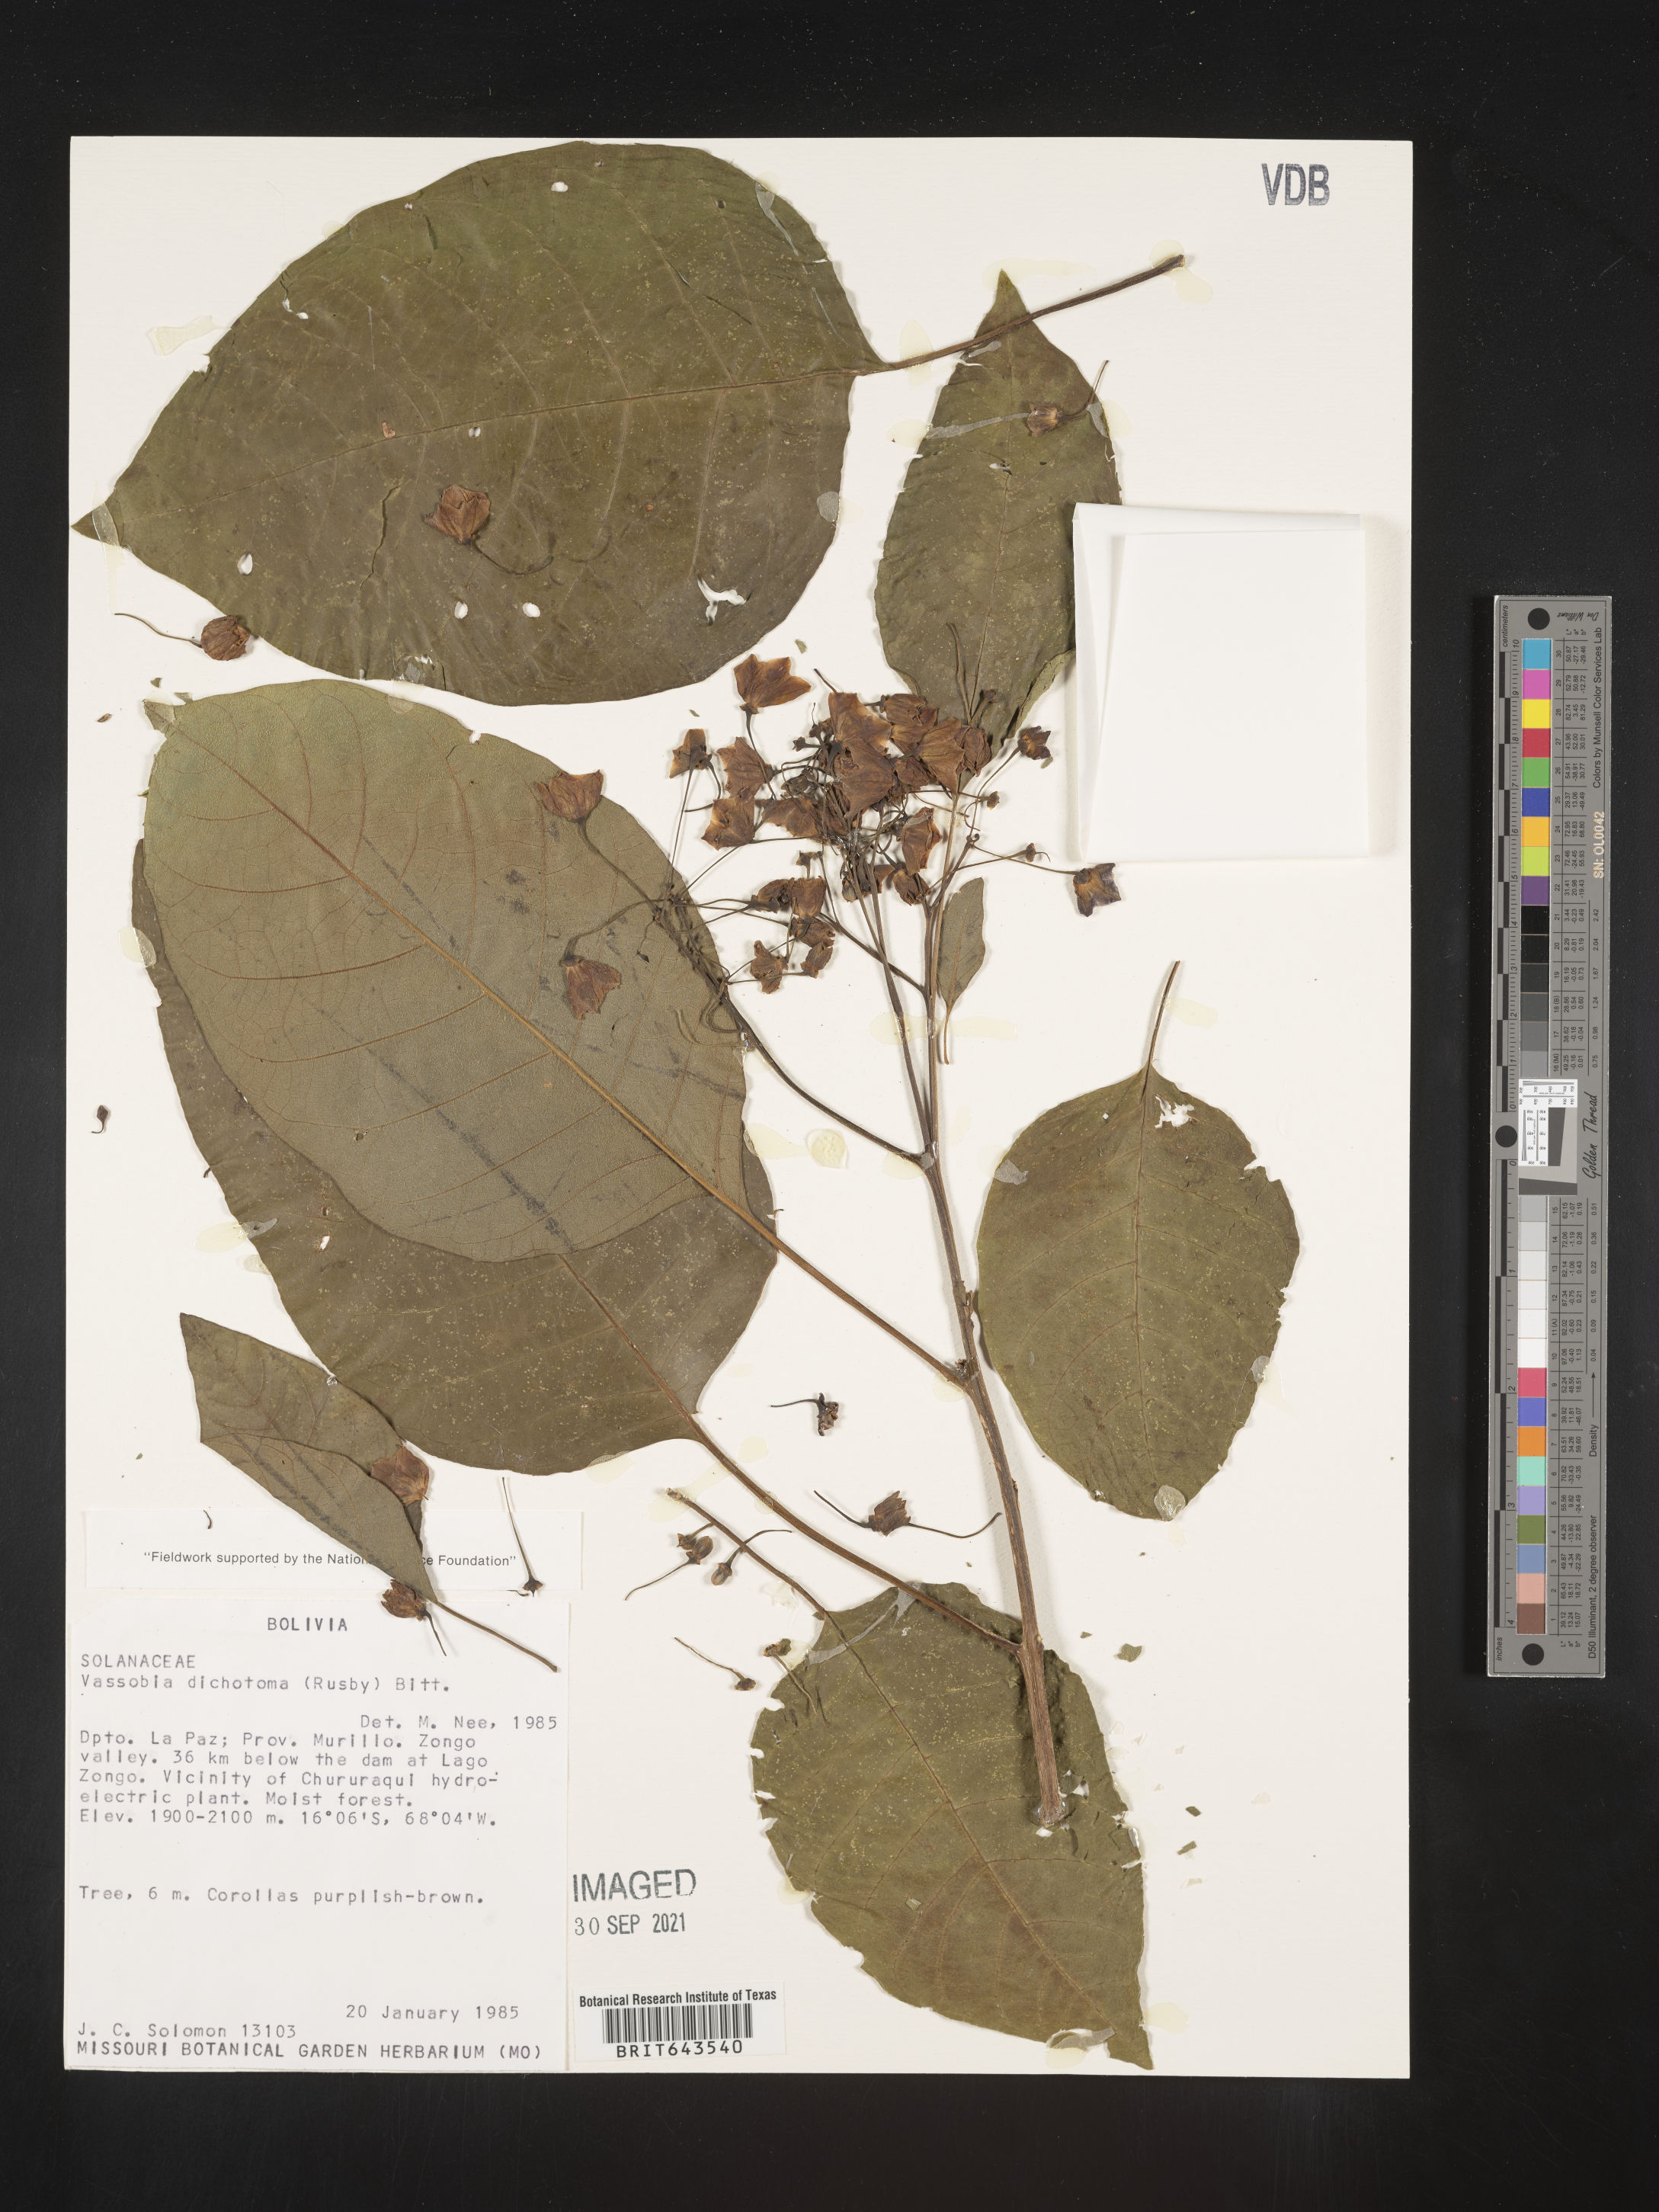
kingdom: Plantae
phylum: Tracheophyta
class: Magnoliopsida
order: Solanales
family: Solanaceae
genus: Vassobia
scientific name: Vassobia dichotoma
